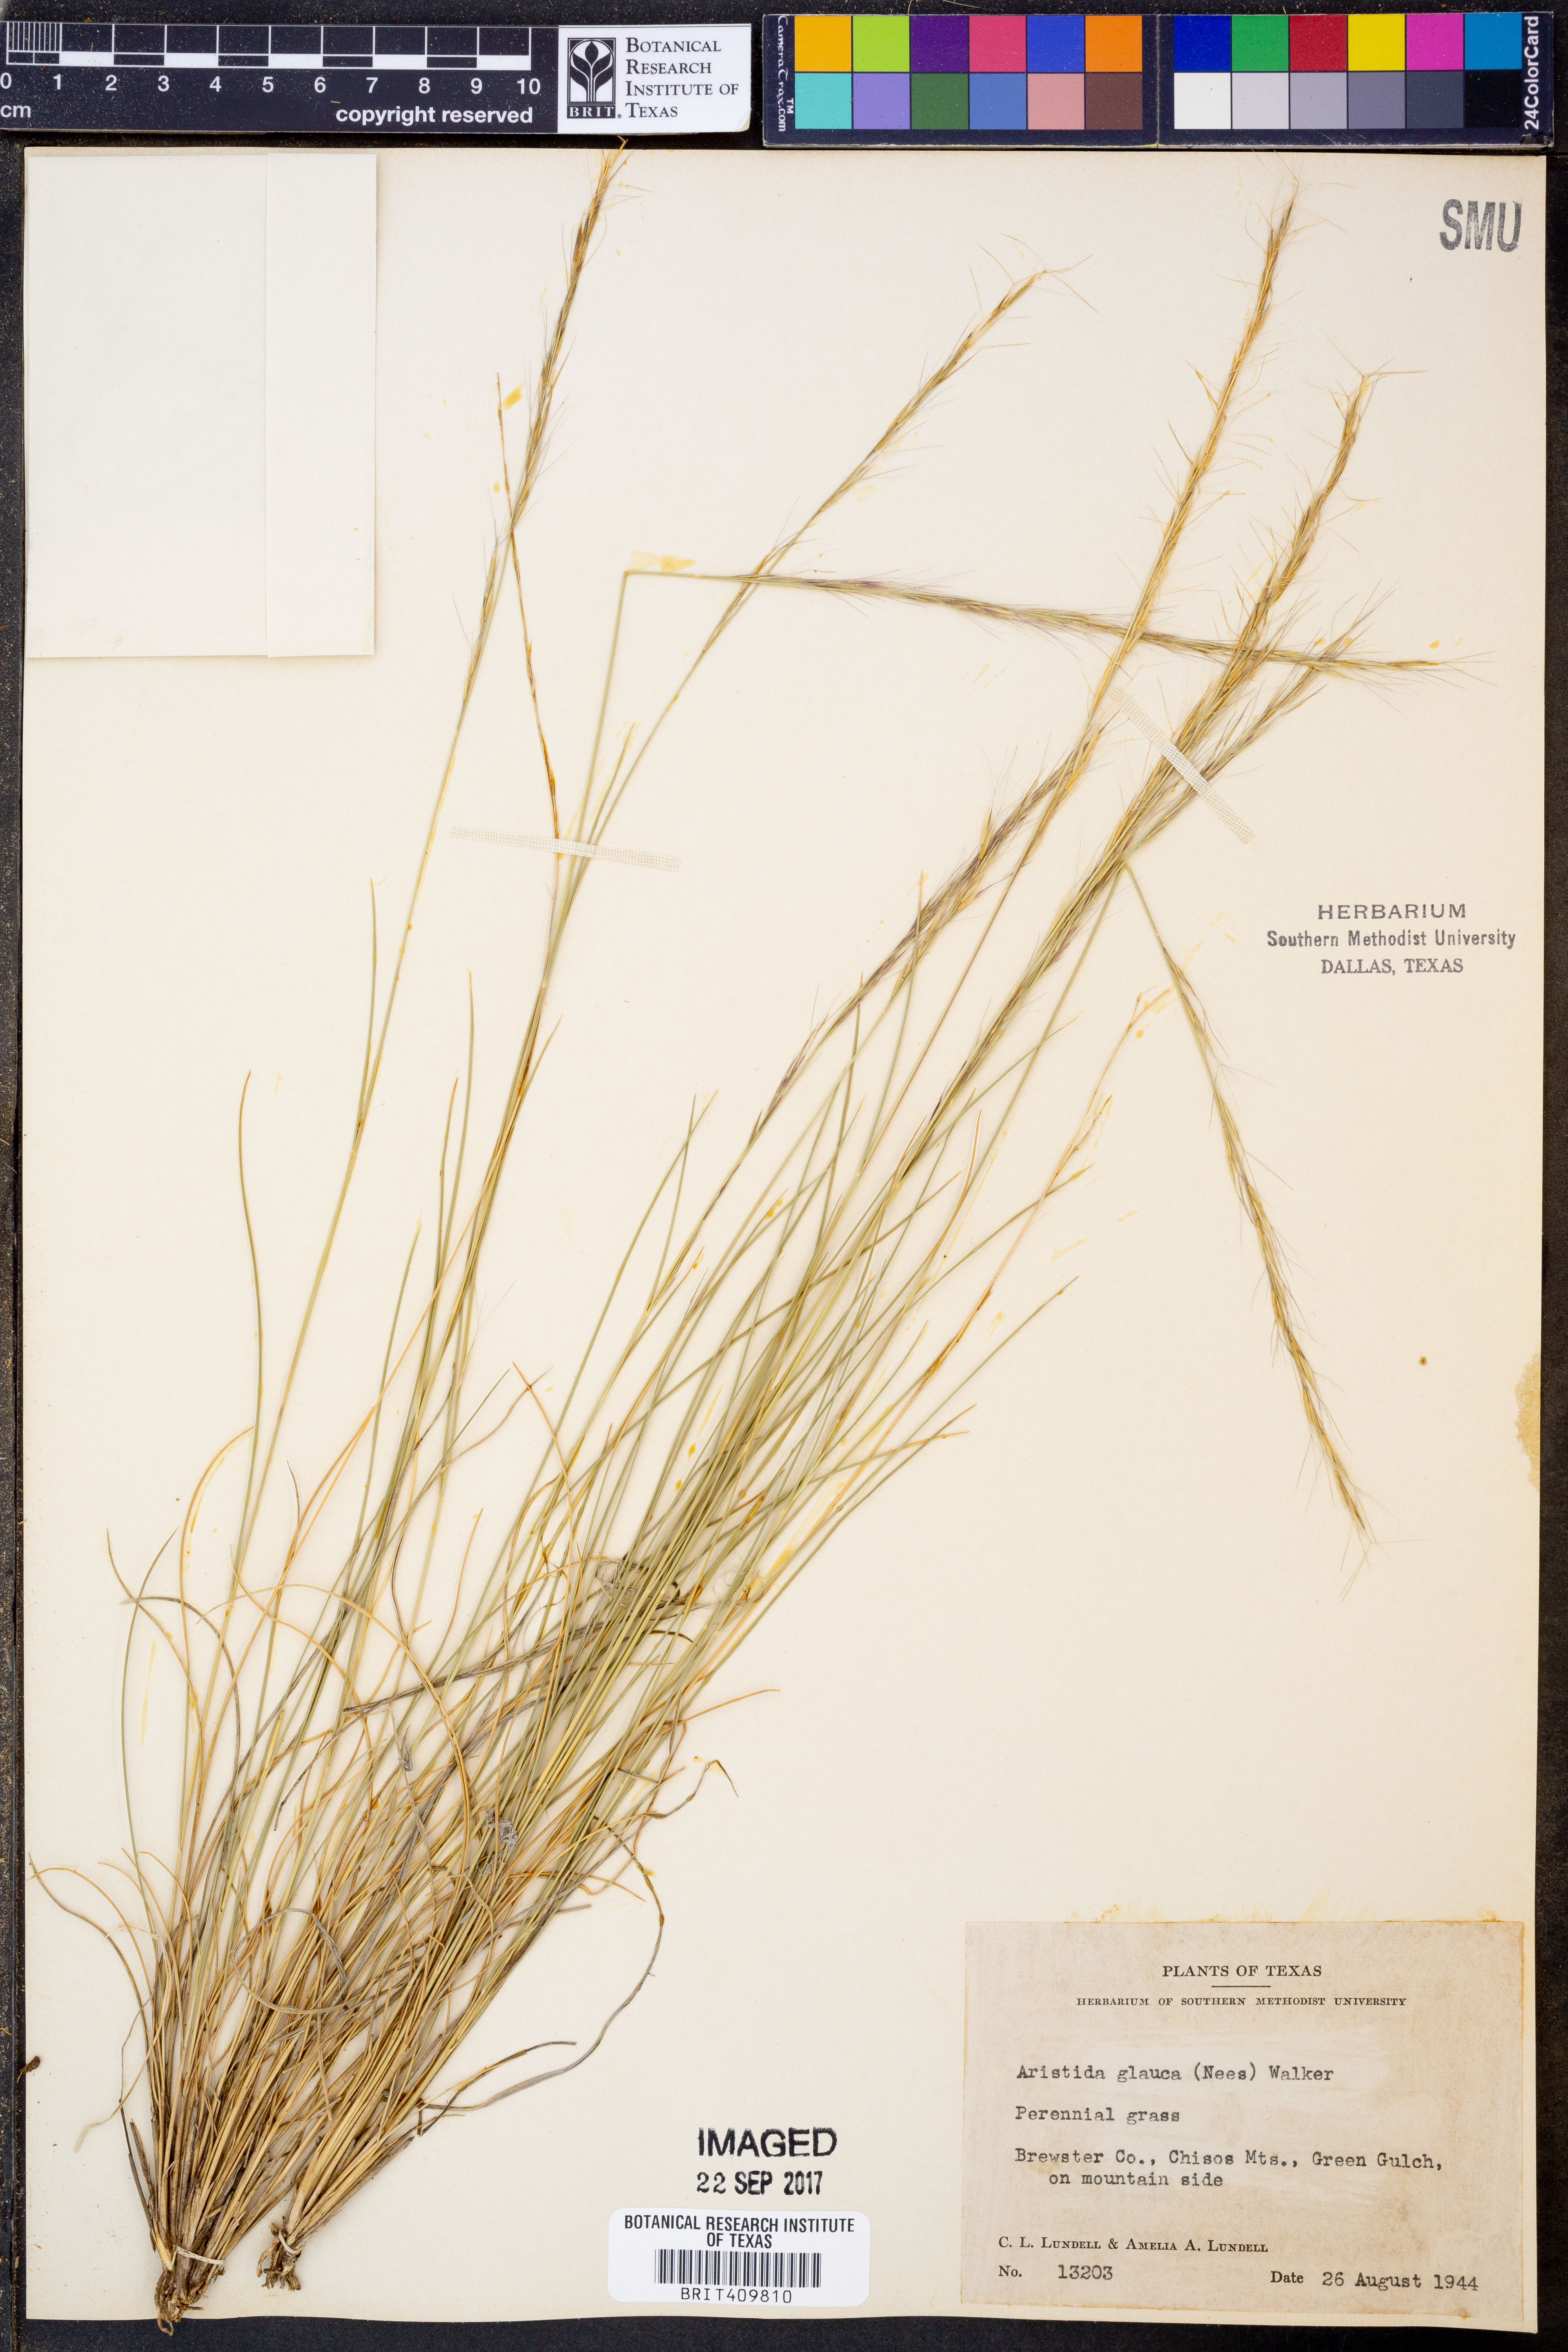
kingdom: Plantae
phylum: Tracheophyta
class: Liliopsida
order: Poales
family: Poaceae
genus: Aristida
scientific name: Aristida glauca
